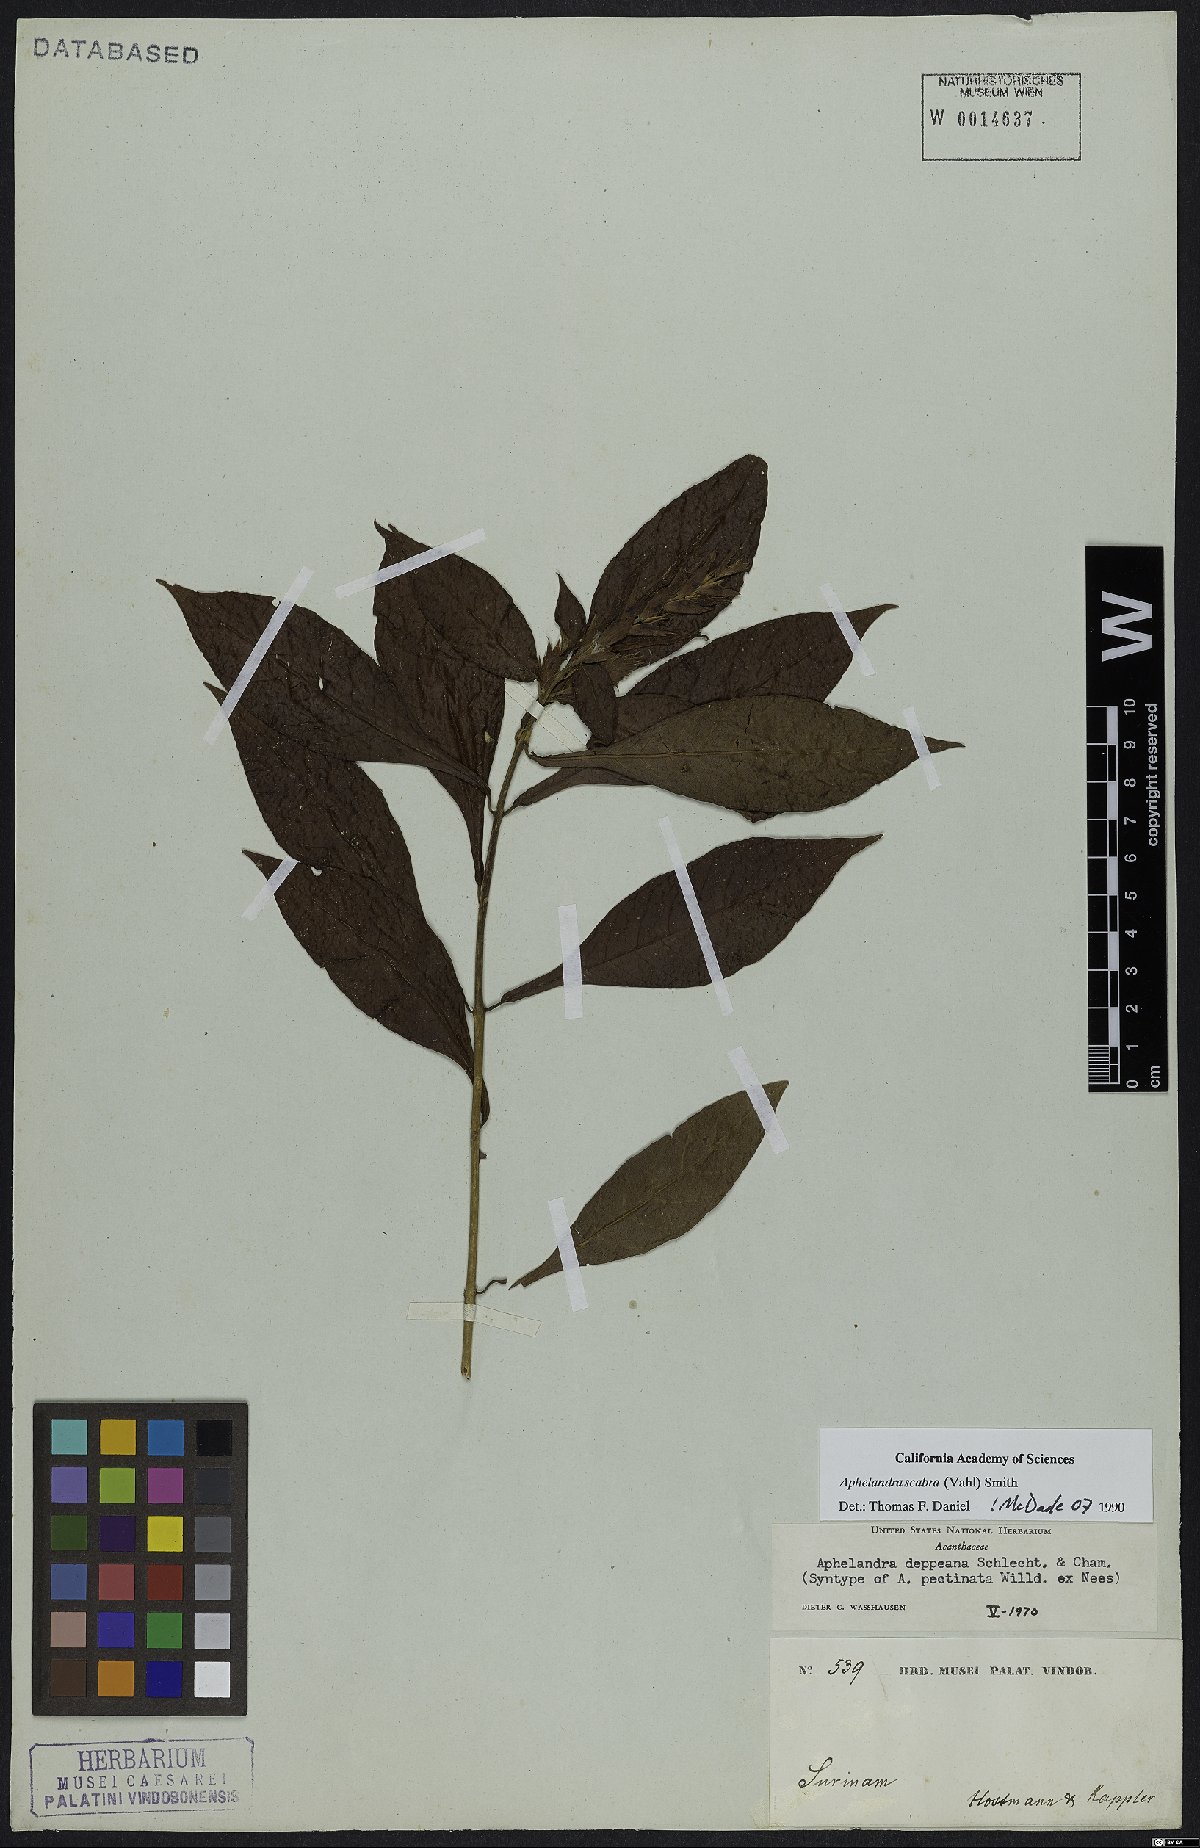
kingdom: Plantae
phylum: Tracheophyta
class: Magnoliopsida
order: Lamiales
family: Acanthaceae
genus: Aphelandra
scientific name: Aphelandra scabra
